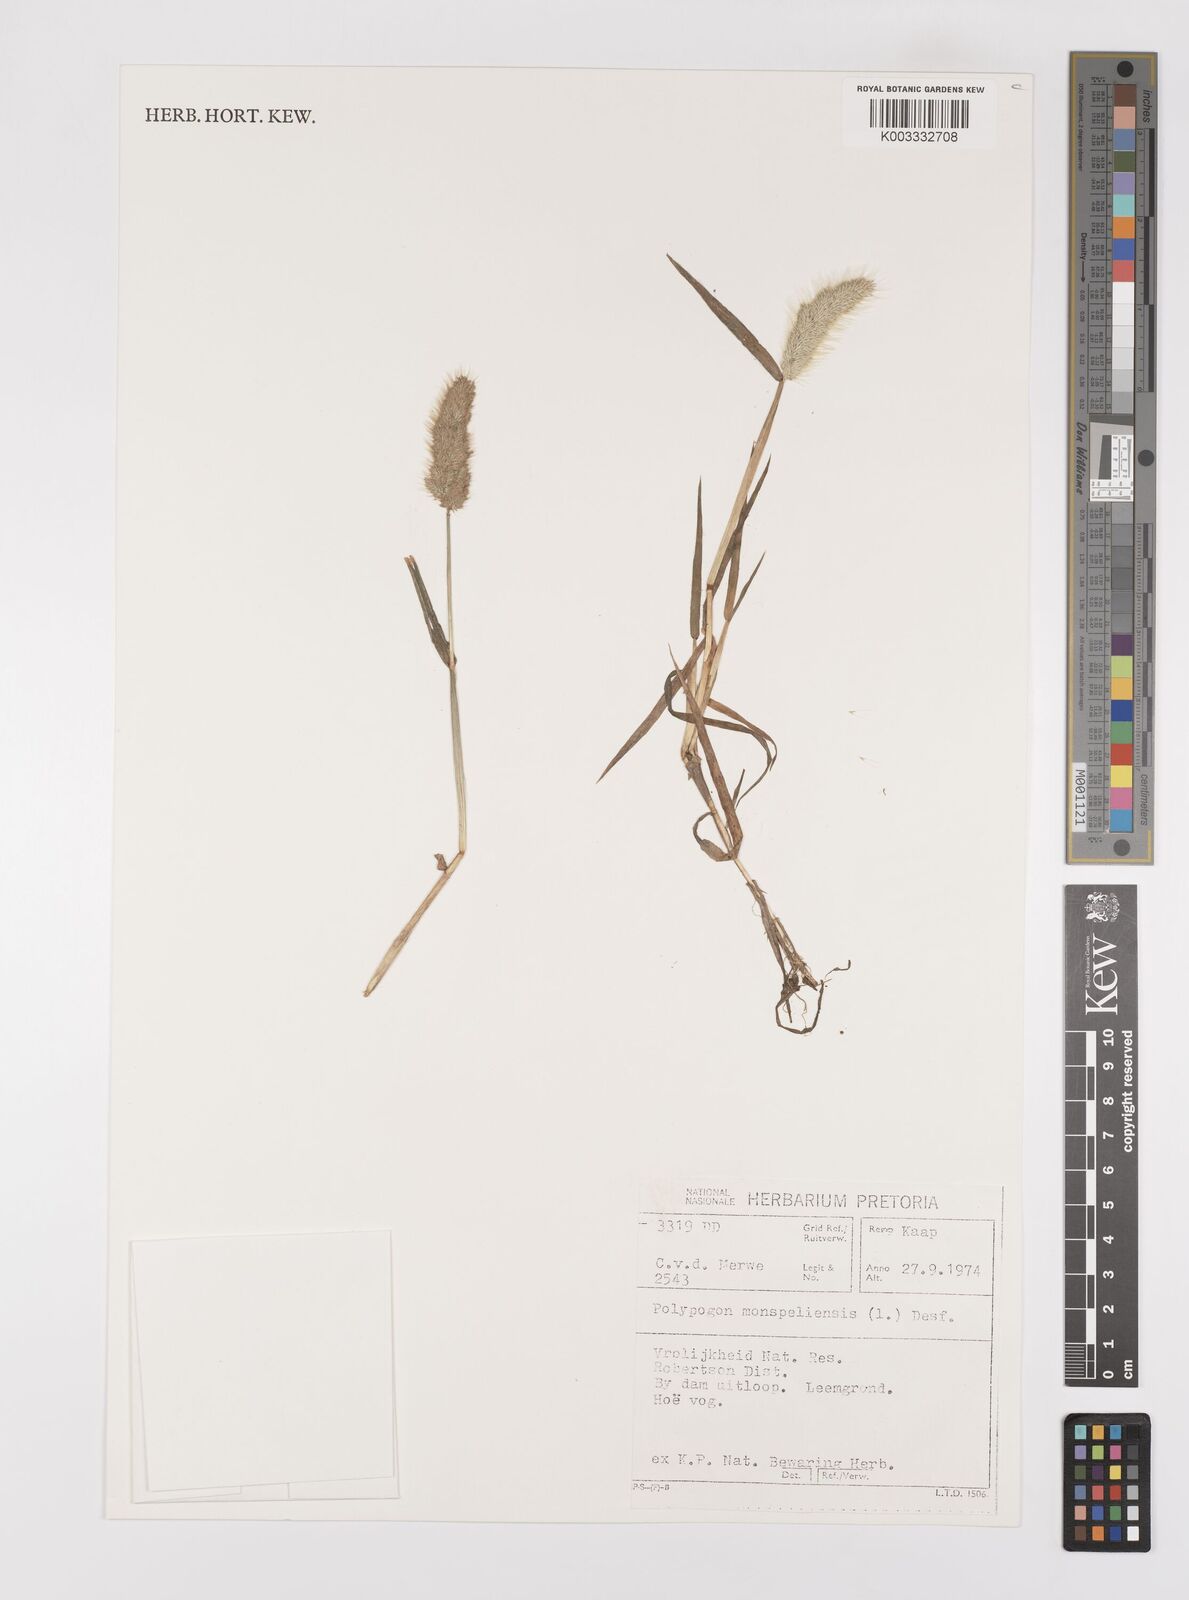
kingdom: Plantae
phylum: Tracheophyta
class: Liliopsida
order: Poales
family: Poaceae
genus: Polypogon
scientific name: Polypogon monspeliensis
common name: Annual rabbitsfoot grass
